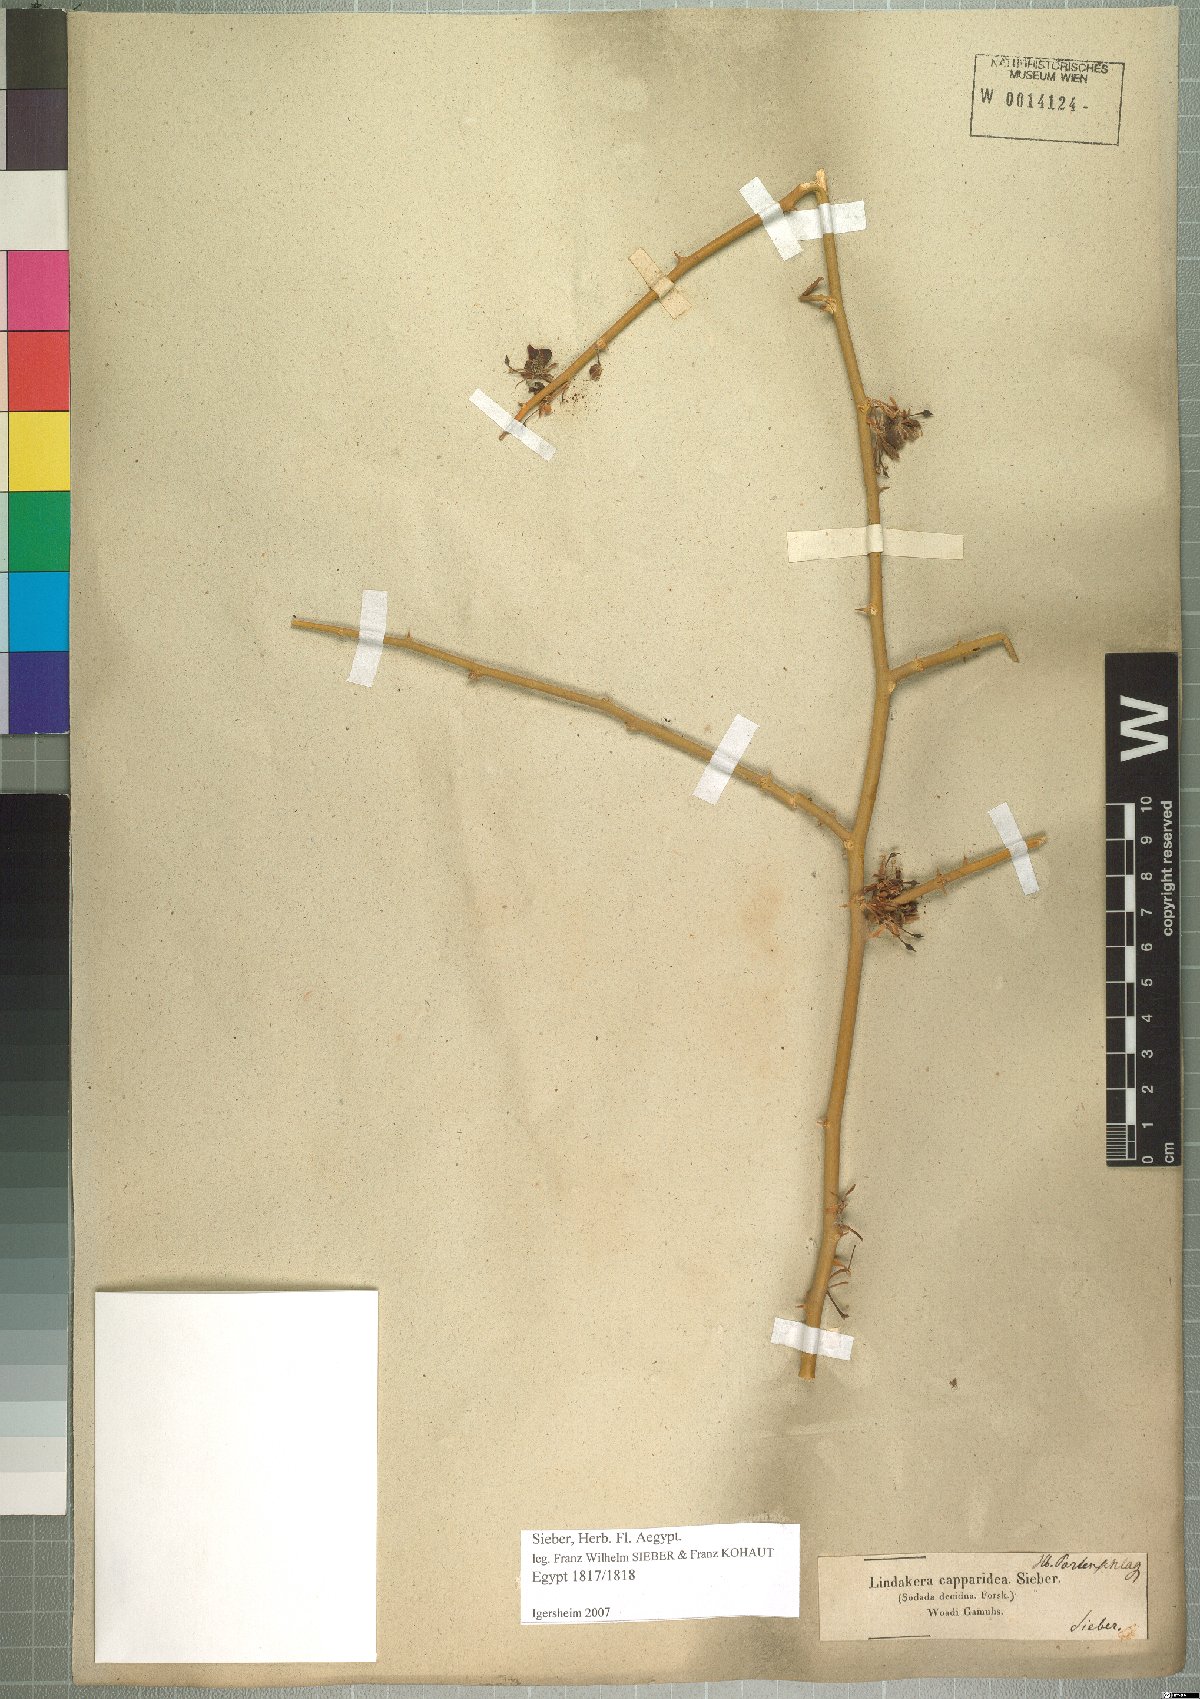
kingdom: Plantae
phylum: Tracheophyta
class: Magnoliopsida
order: Brassicales
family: Capparaceae
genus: Capparis
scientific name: Capparis decidua
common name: Sodada
